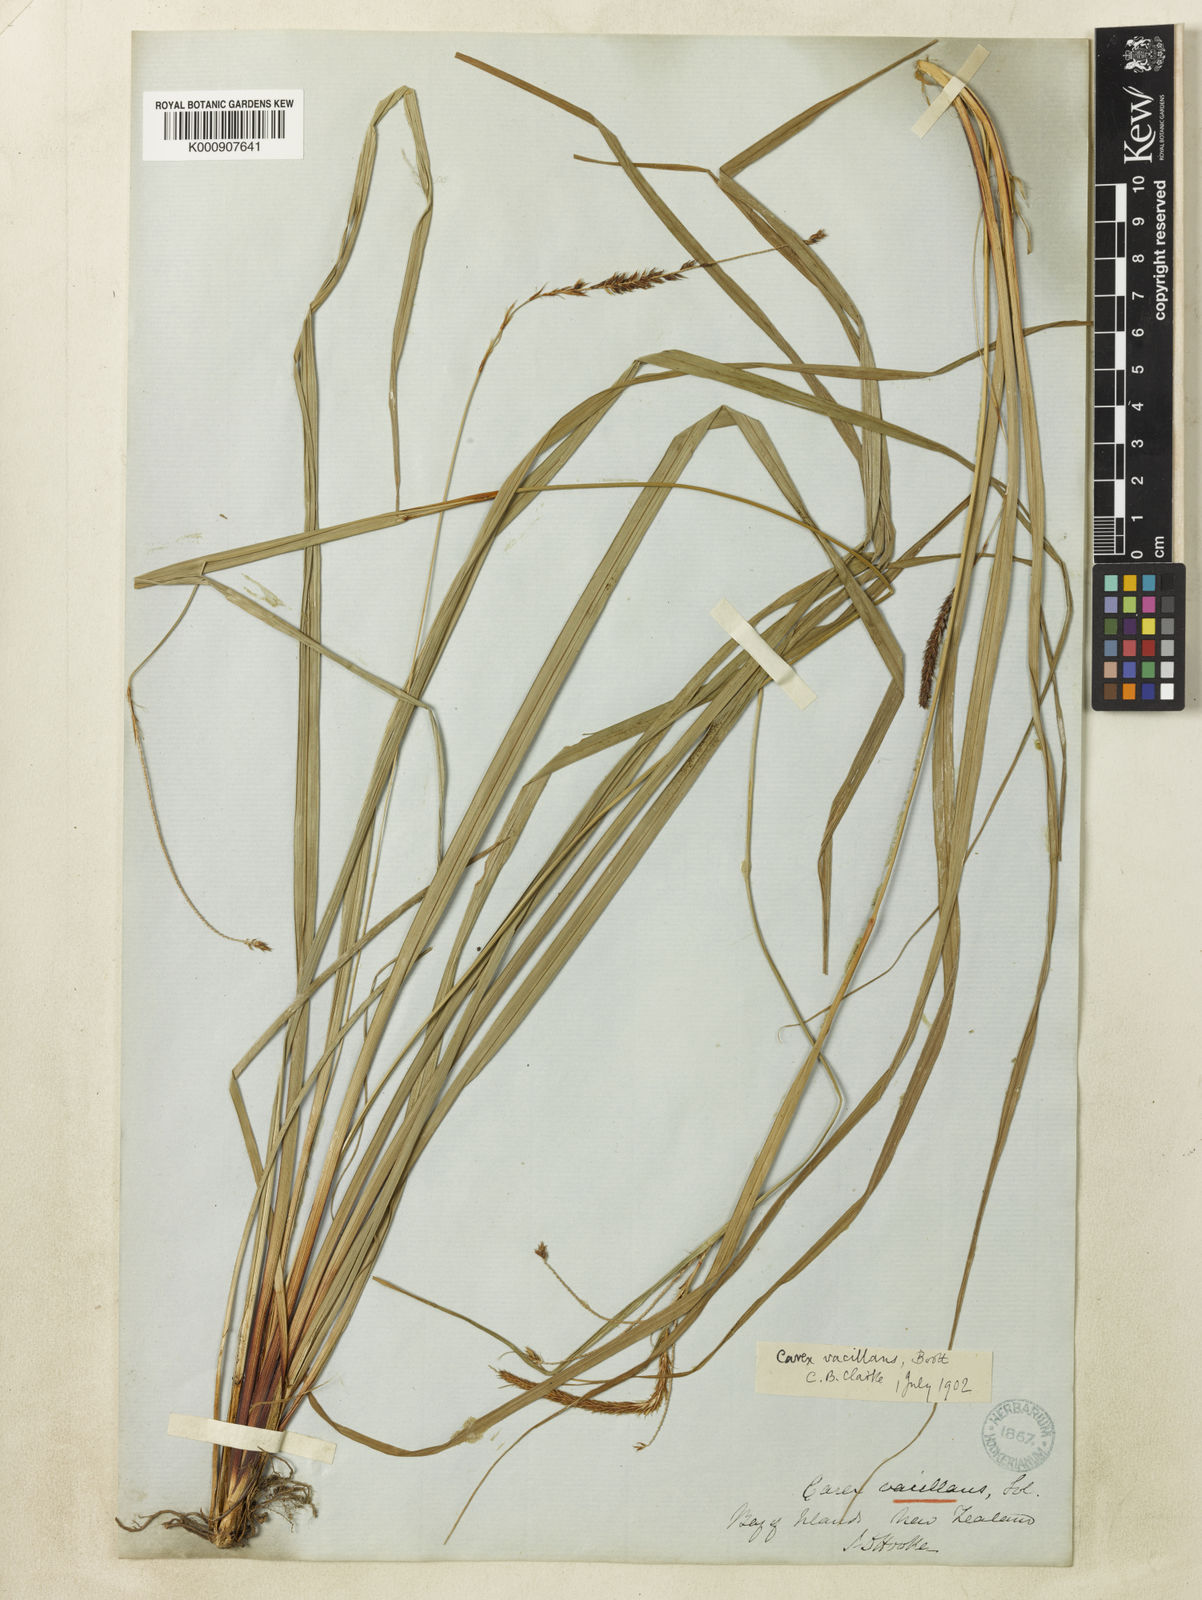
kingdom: Plantae
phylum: Tracheophyta
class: Liliopsida
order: Poales
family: Cyperaceae
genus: Carex
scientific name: Carex spinirostris
